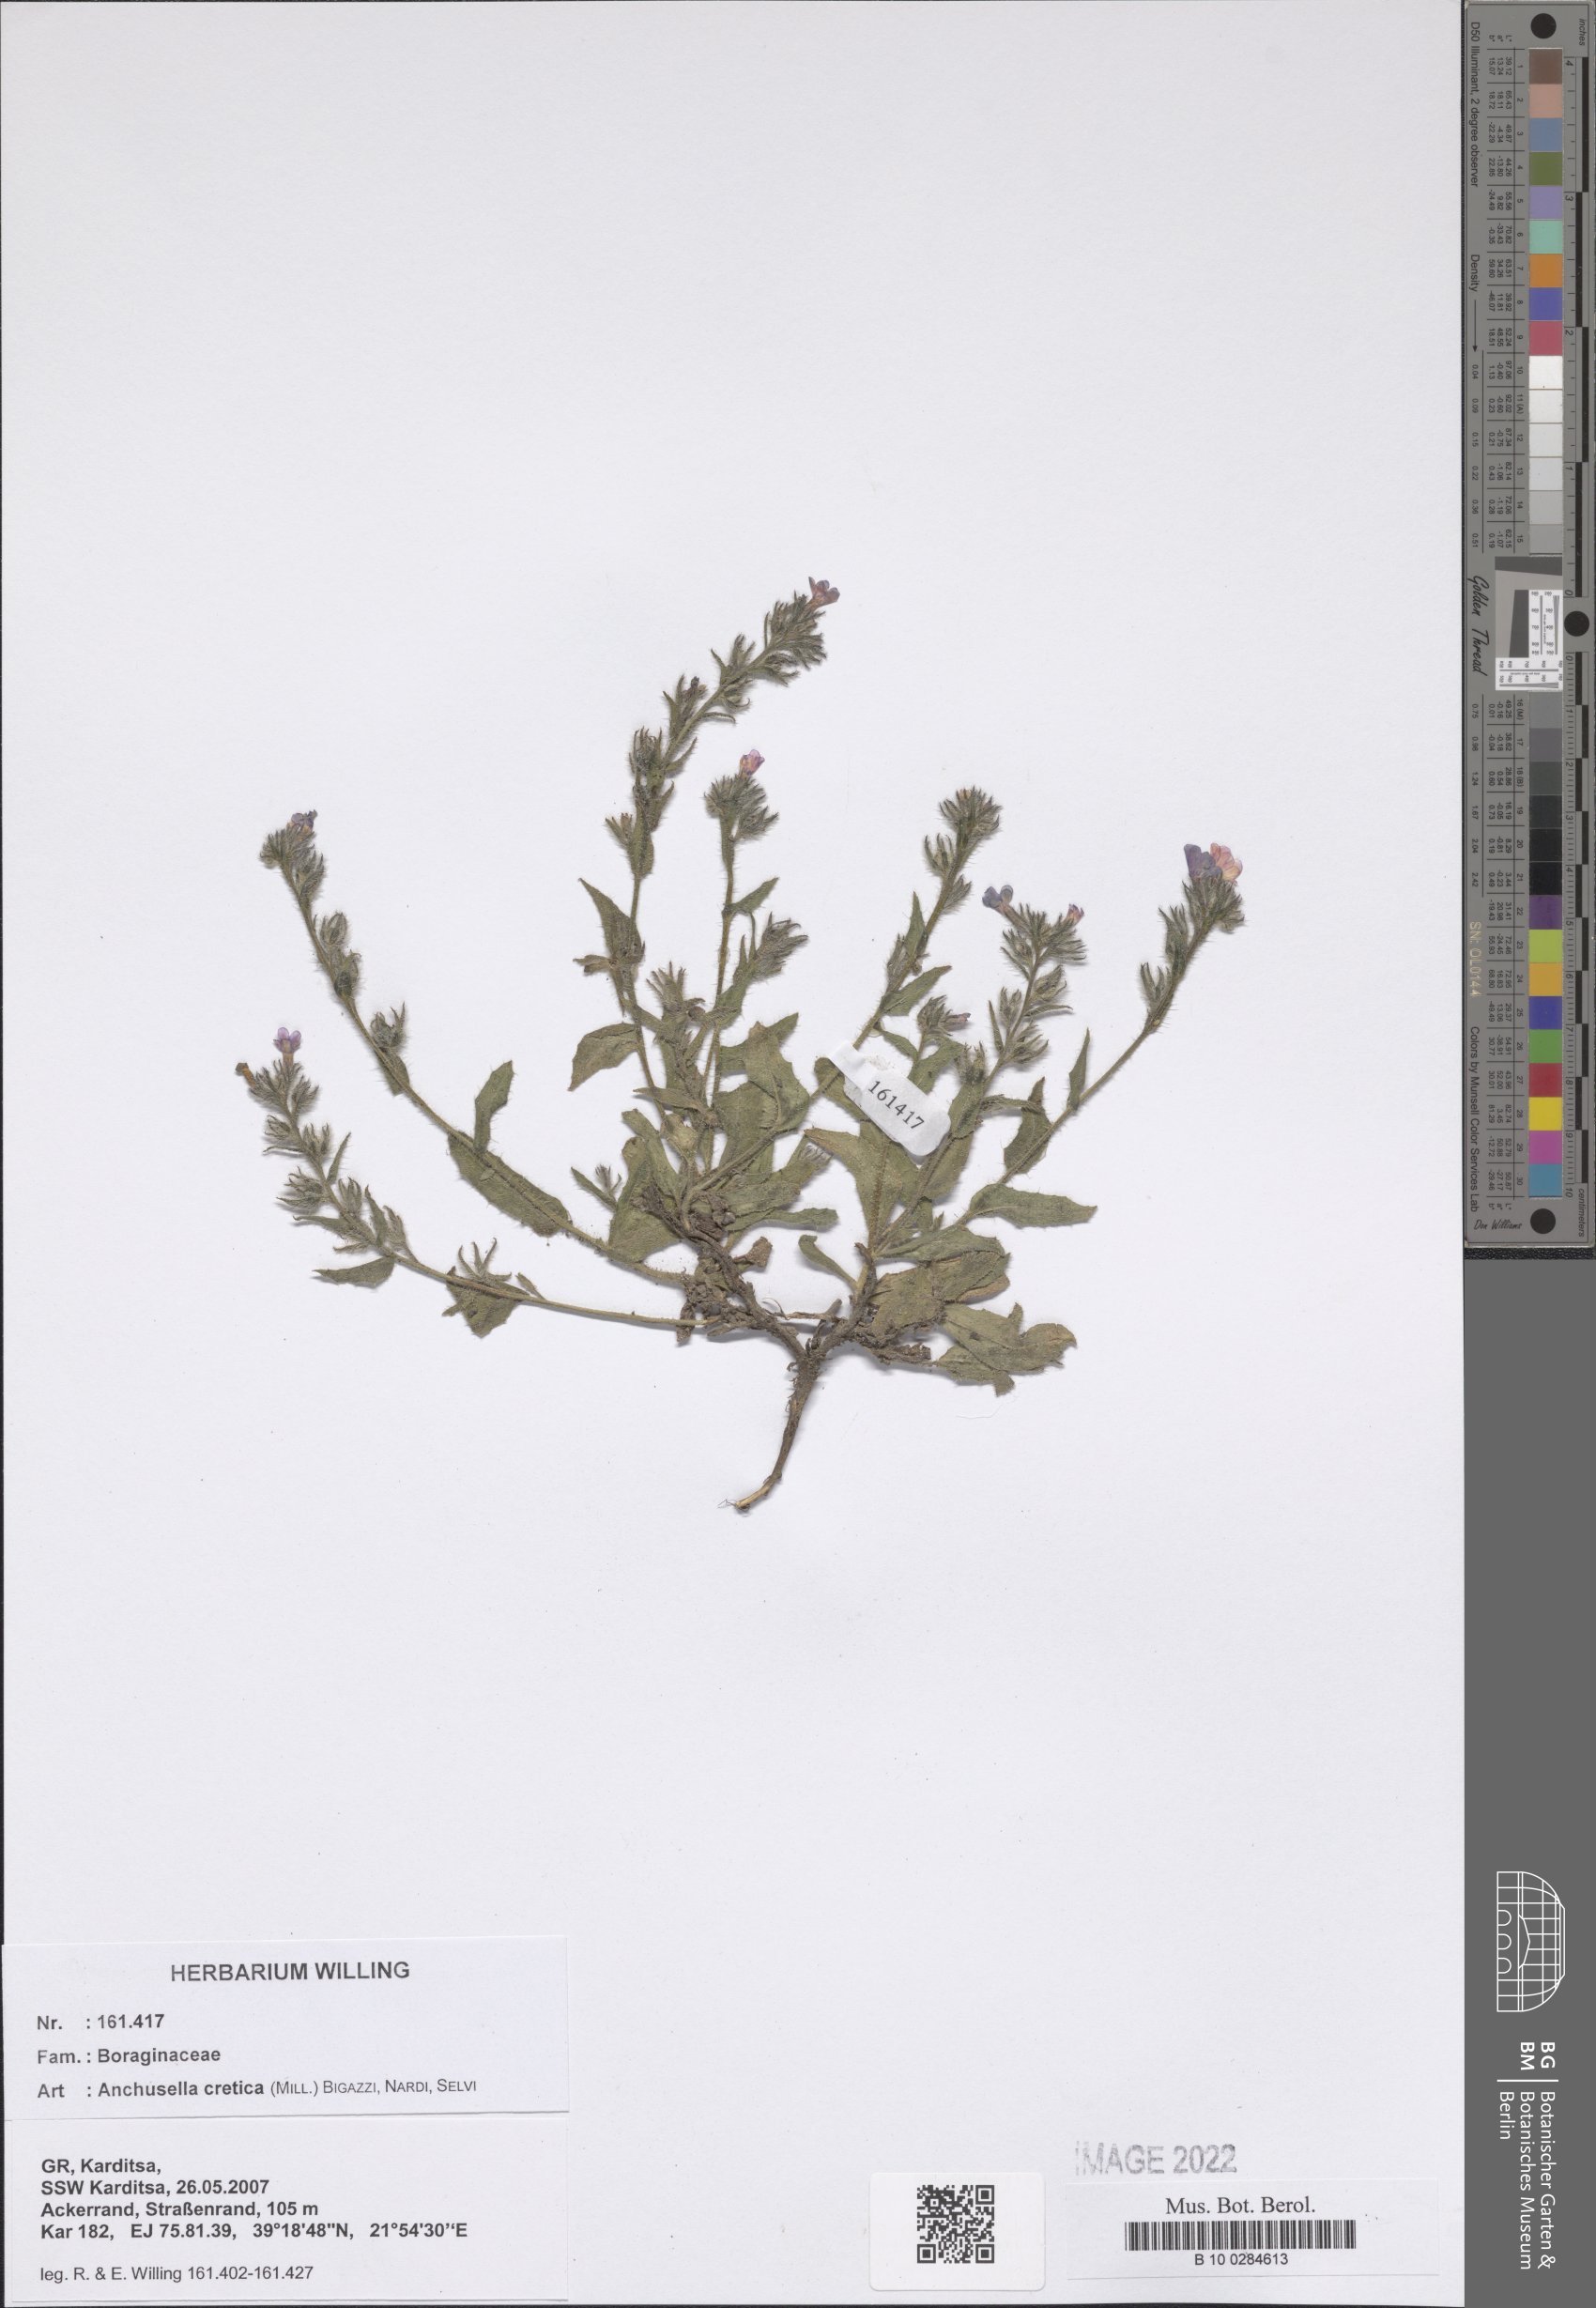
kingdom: Plantae
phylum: Tracheophyta
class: Magnoliopsida
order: Boraginales
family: Boraginaceae
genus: Lycopsis
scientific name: Lycopsis arvensis
